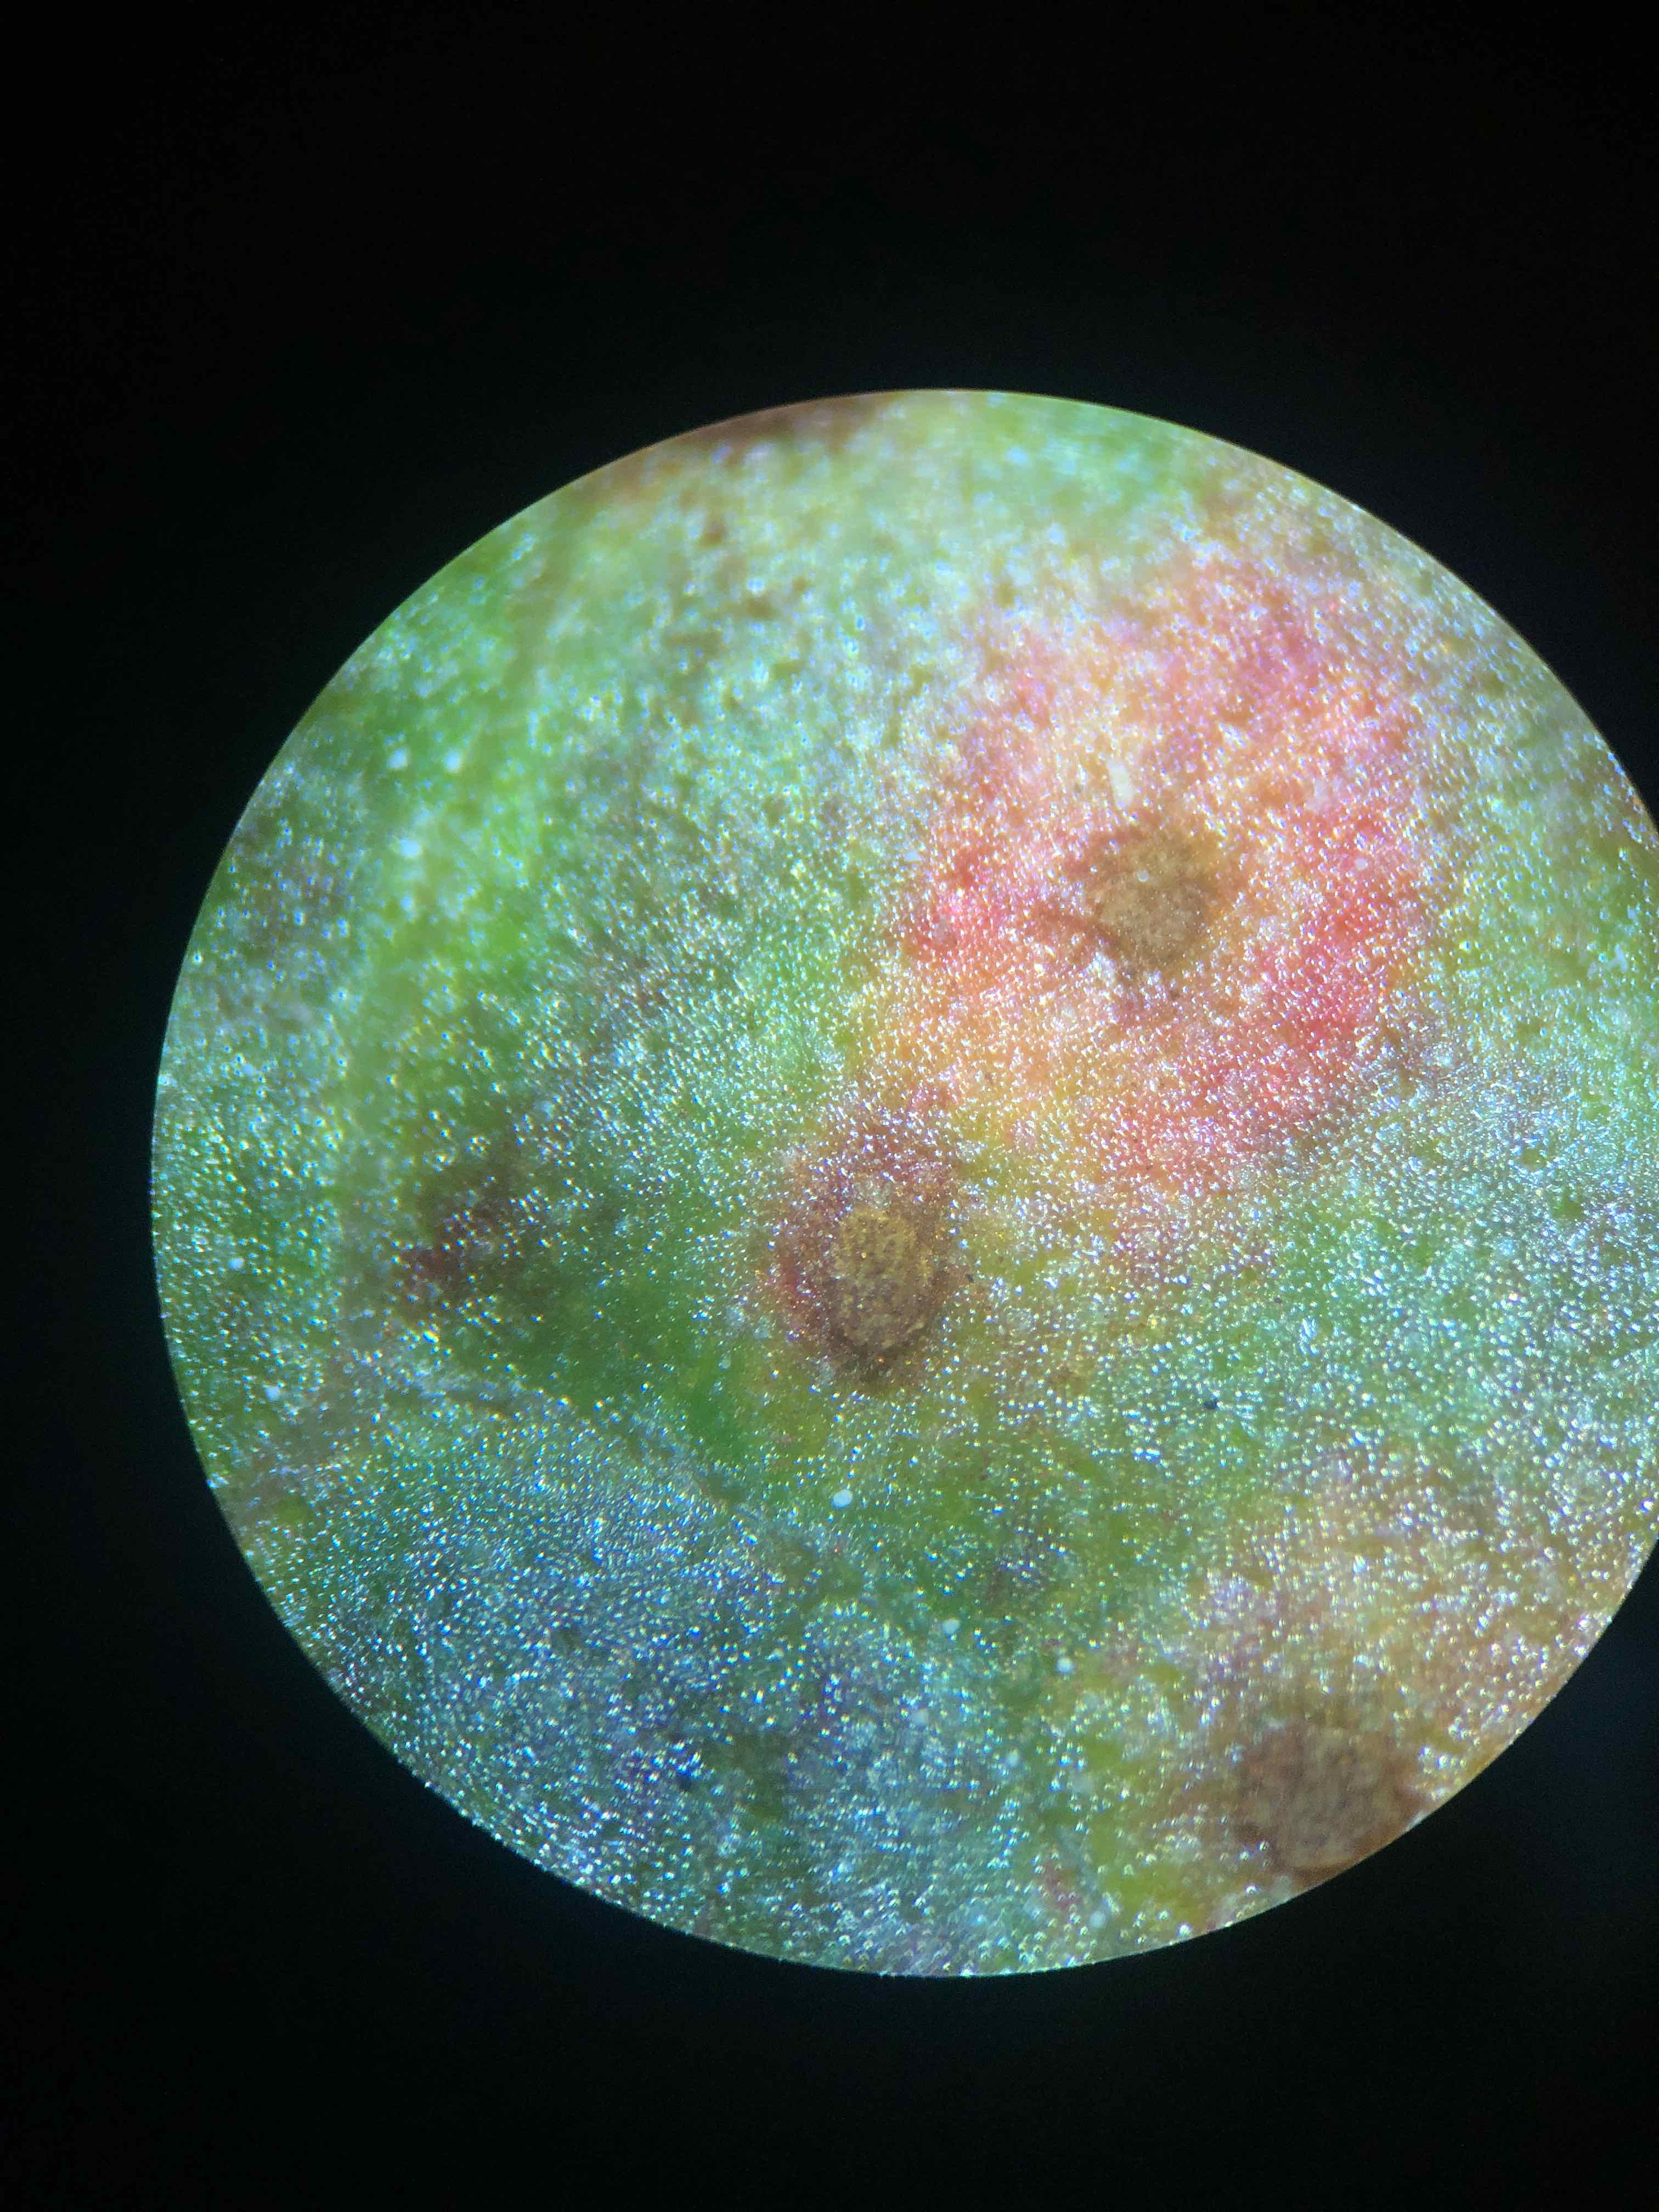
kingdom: Fungi
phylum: Basidiomycota
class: Pucciniomycetes
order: Pucciniales
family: Pucciniaceae
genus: Uromyces
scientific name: Uromyces rumicis
